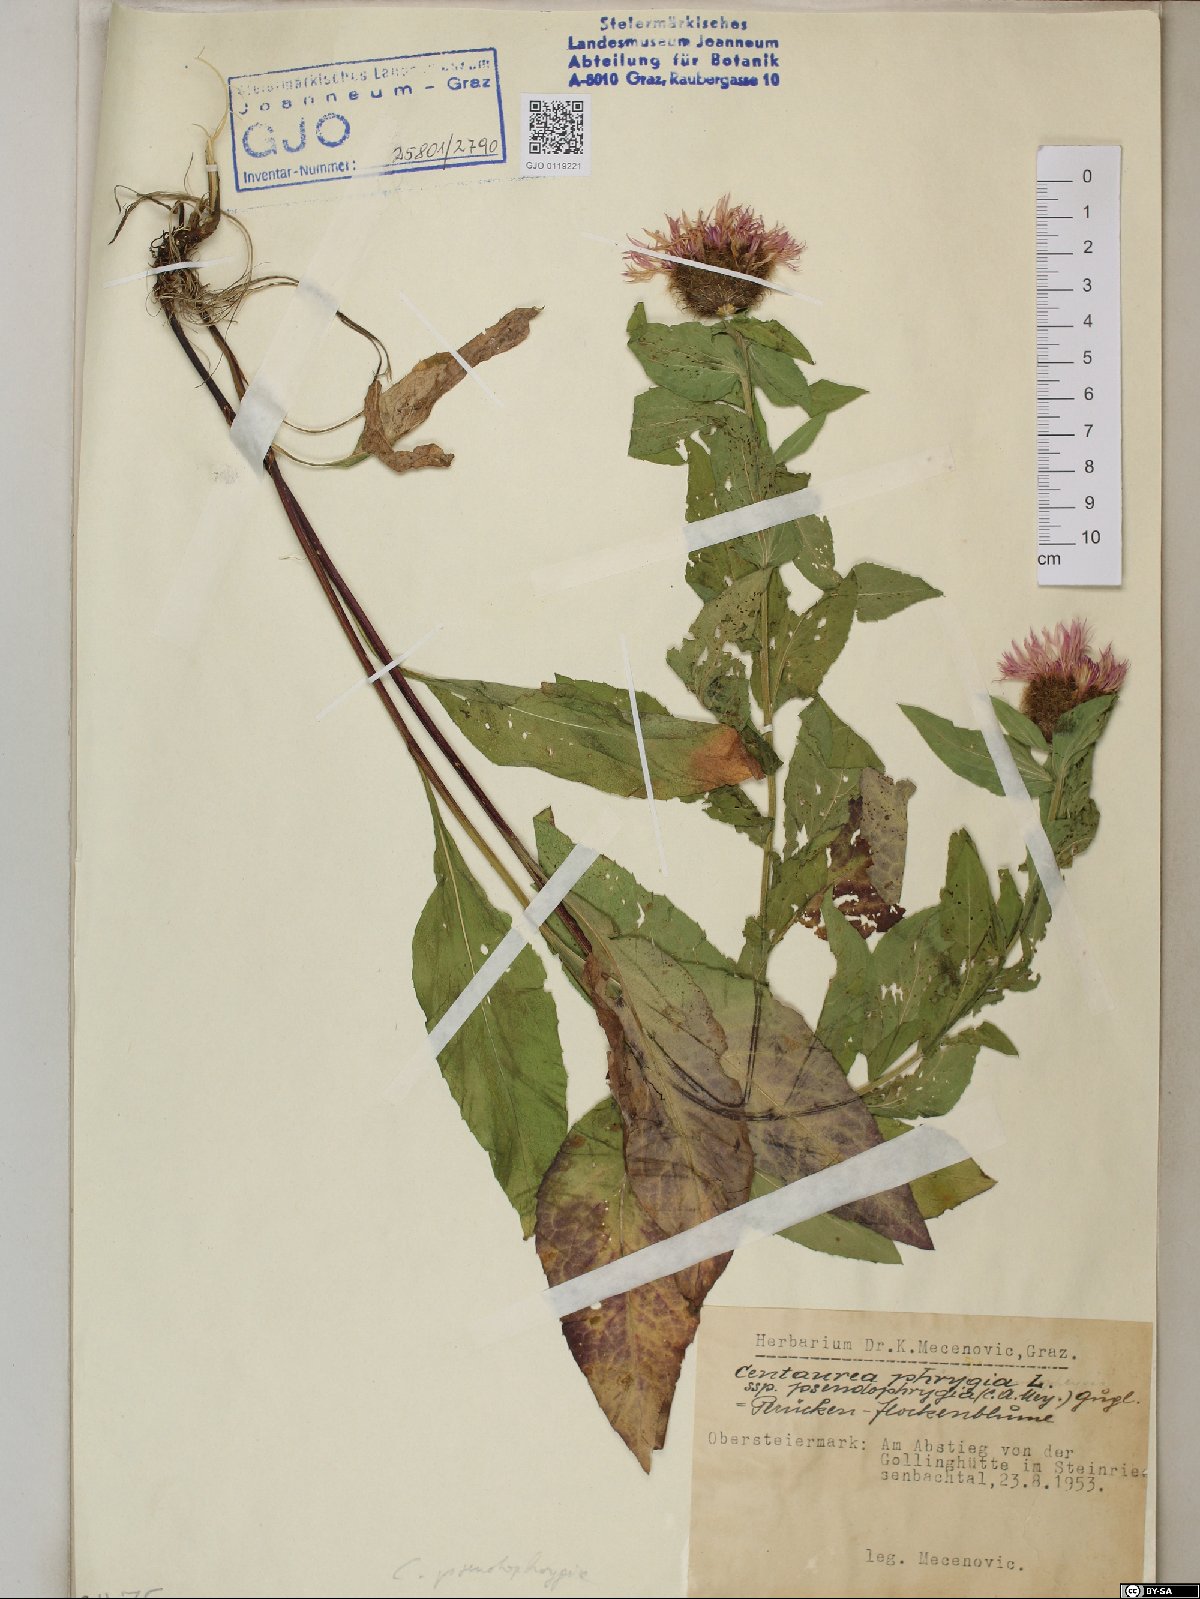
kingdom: Plantae
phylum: Tracheophyta
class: Magnoliopsida
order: Asterales
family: Asteraceae
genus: Centaurea
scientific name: Centaurea pseudophrygia
